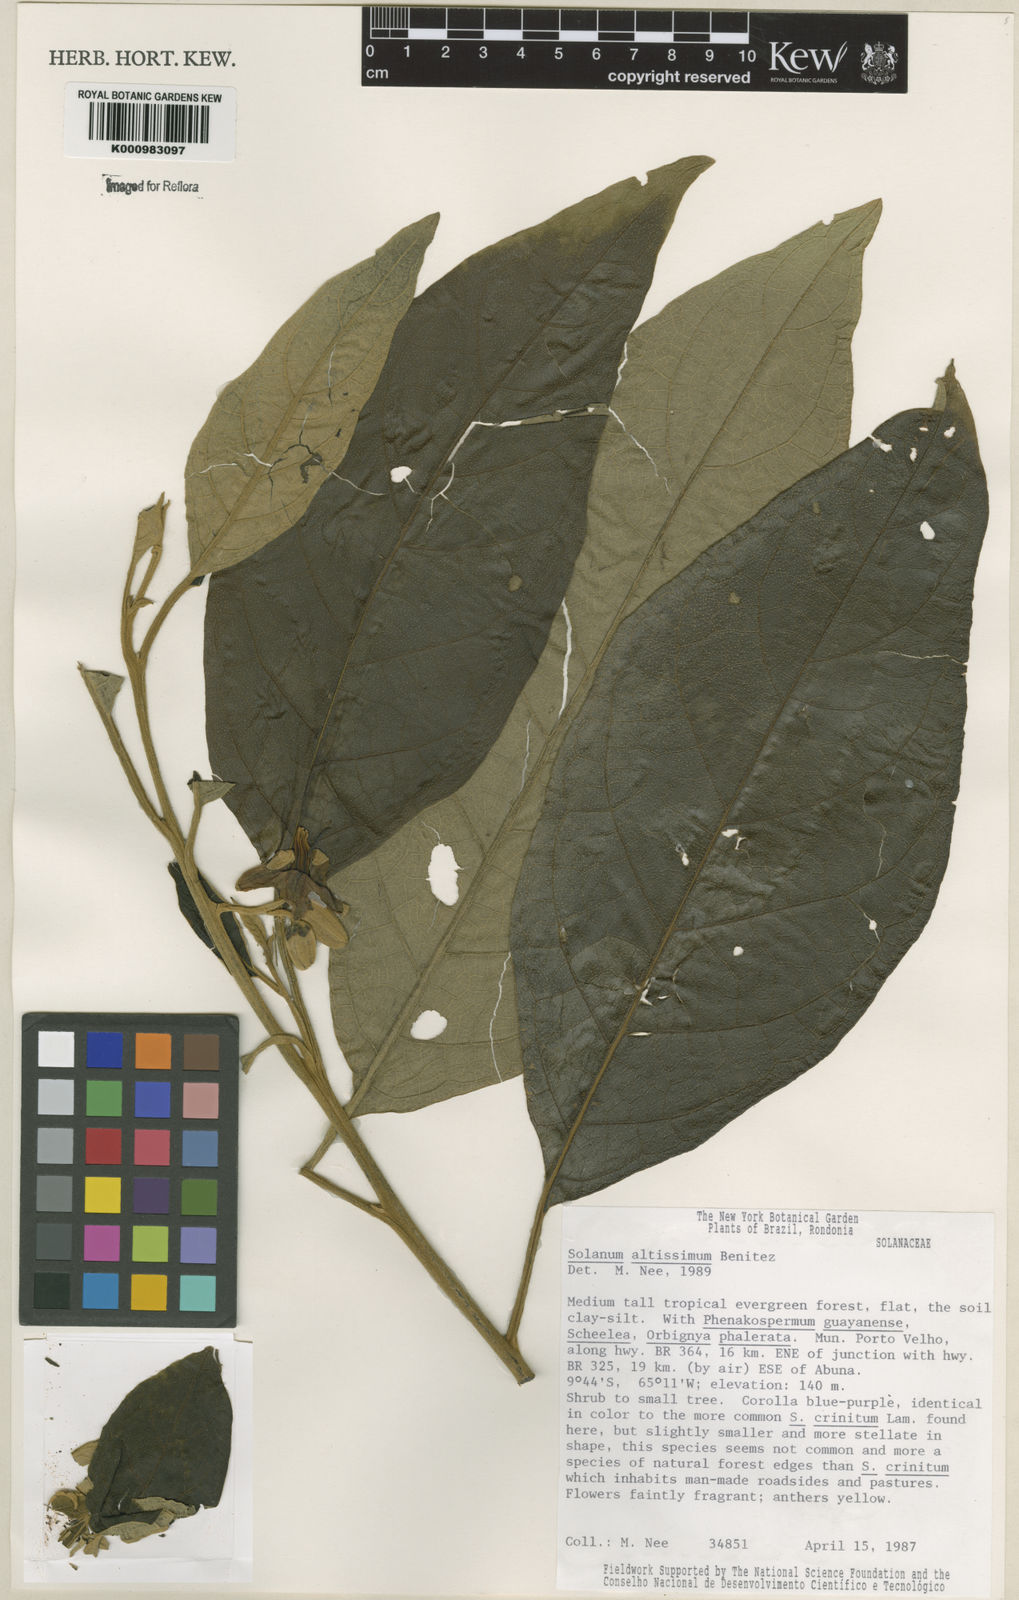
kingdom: Plantae
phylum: Tracheophyta
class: Magnoliopsida
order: Solanales
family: Solanaceae
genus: Solanum
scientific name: Solanum kioniotrichum
